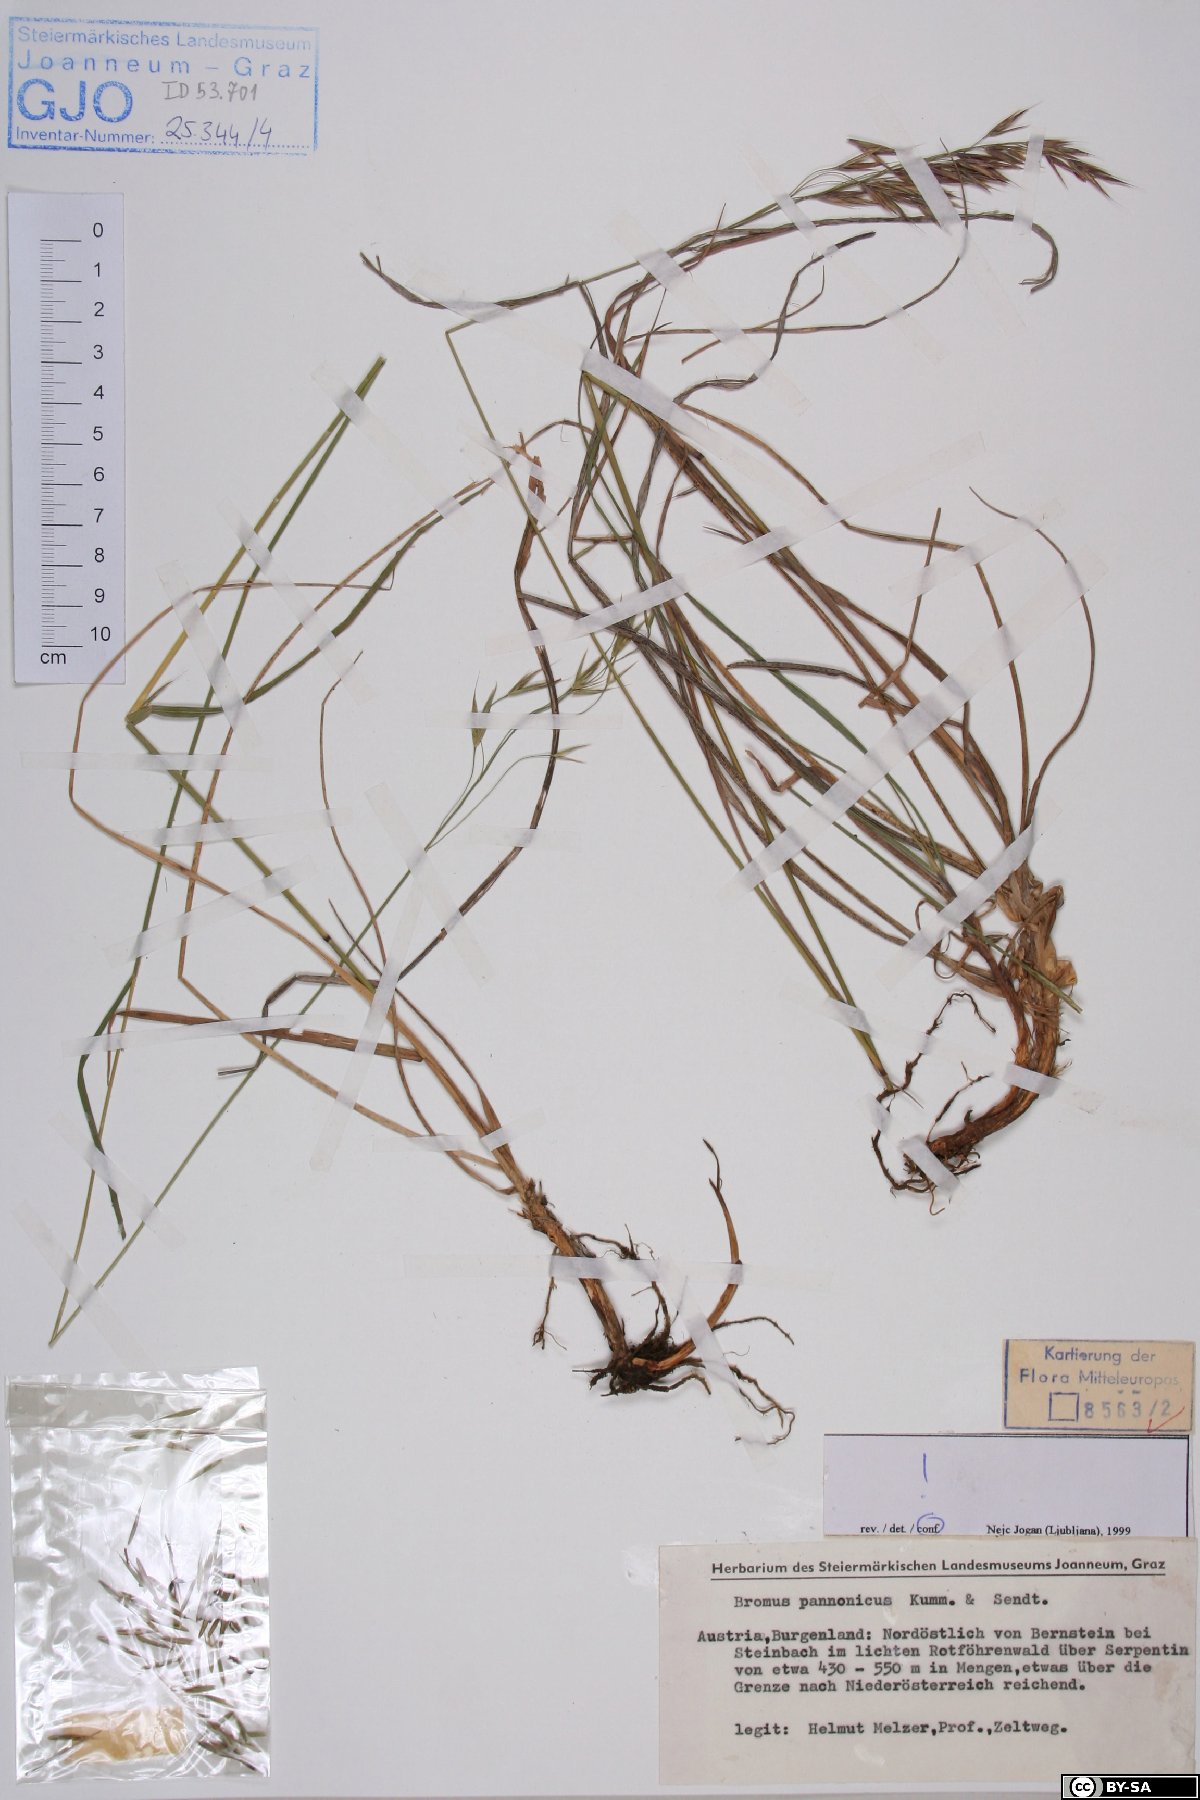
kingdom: Plantae
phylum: Tracheophyta
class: Liliopsida
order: Poales
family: Poaceae
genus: Bromus
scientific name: Bromus pannonicus
